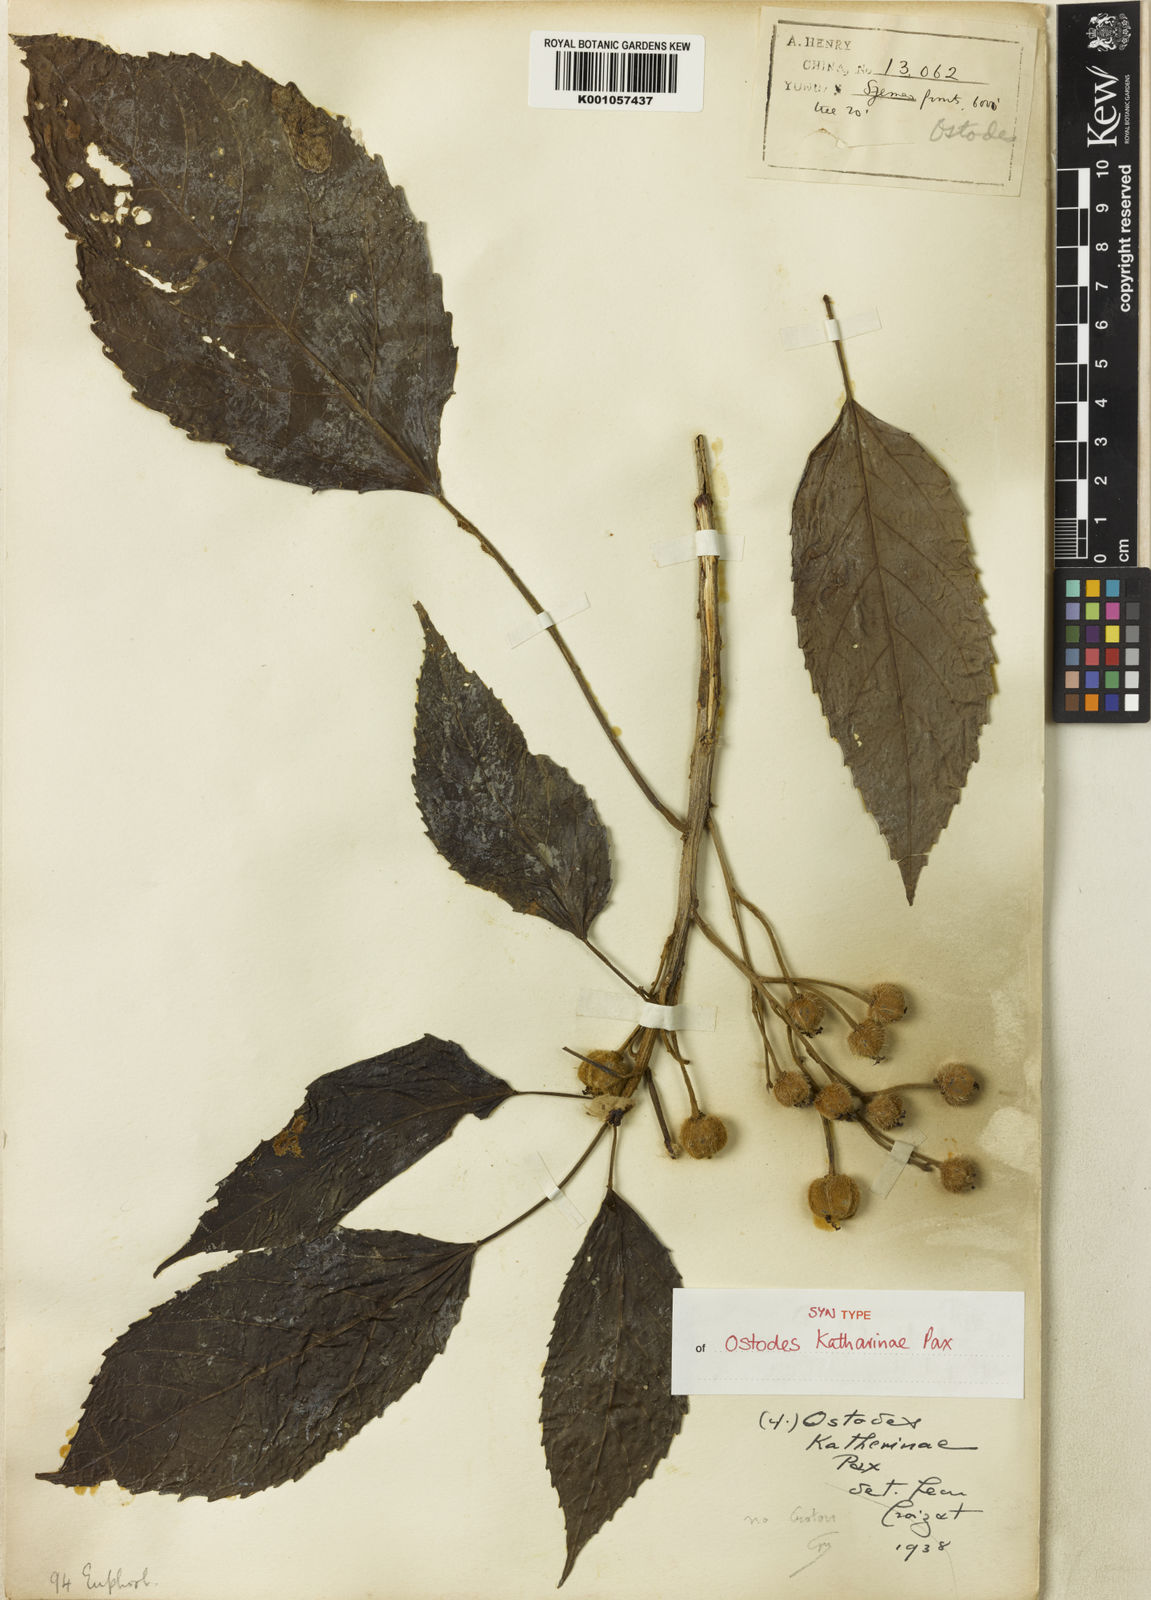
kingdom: Plantae
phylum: Tracheophyta
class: Magnoliopsida
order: Malpighiales
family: Euphorbiaceae
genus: Ostodes
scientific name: Ostodes paniculata
